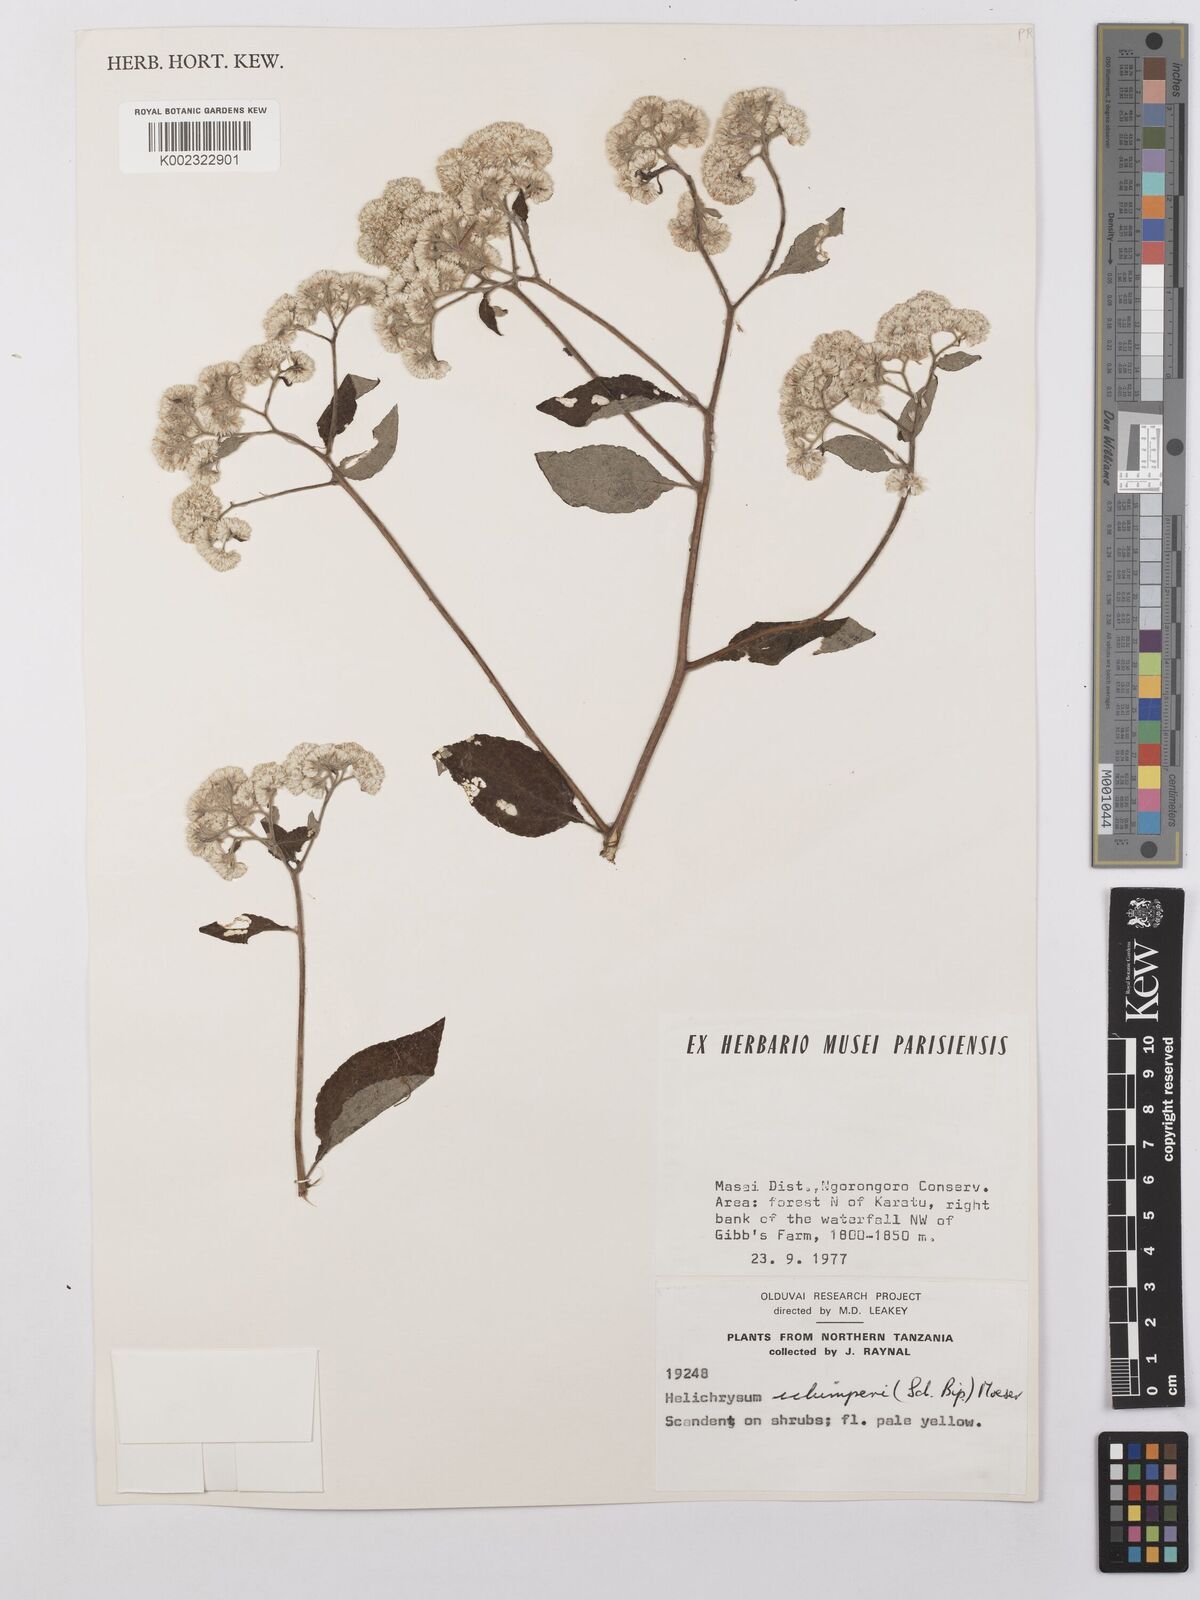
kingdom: Plantae
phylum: Tracheophyta
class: Magnoliopsida
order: Asterales
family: Asteraceae
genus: Helichrysum
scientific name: Helichrysum schimperi
